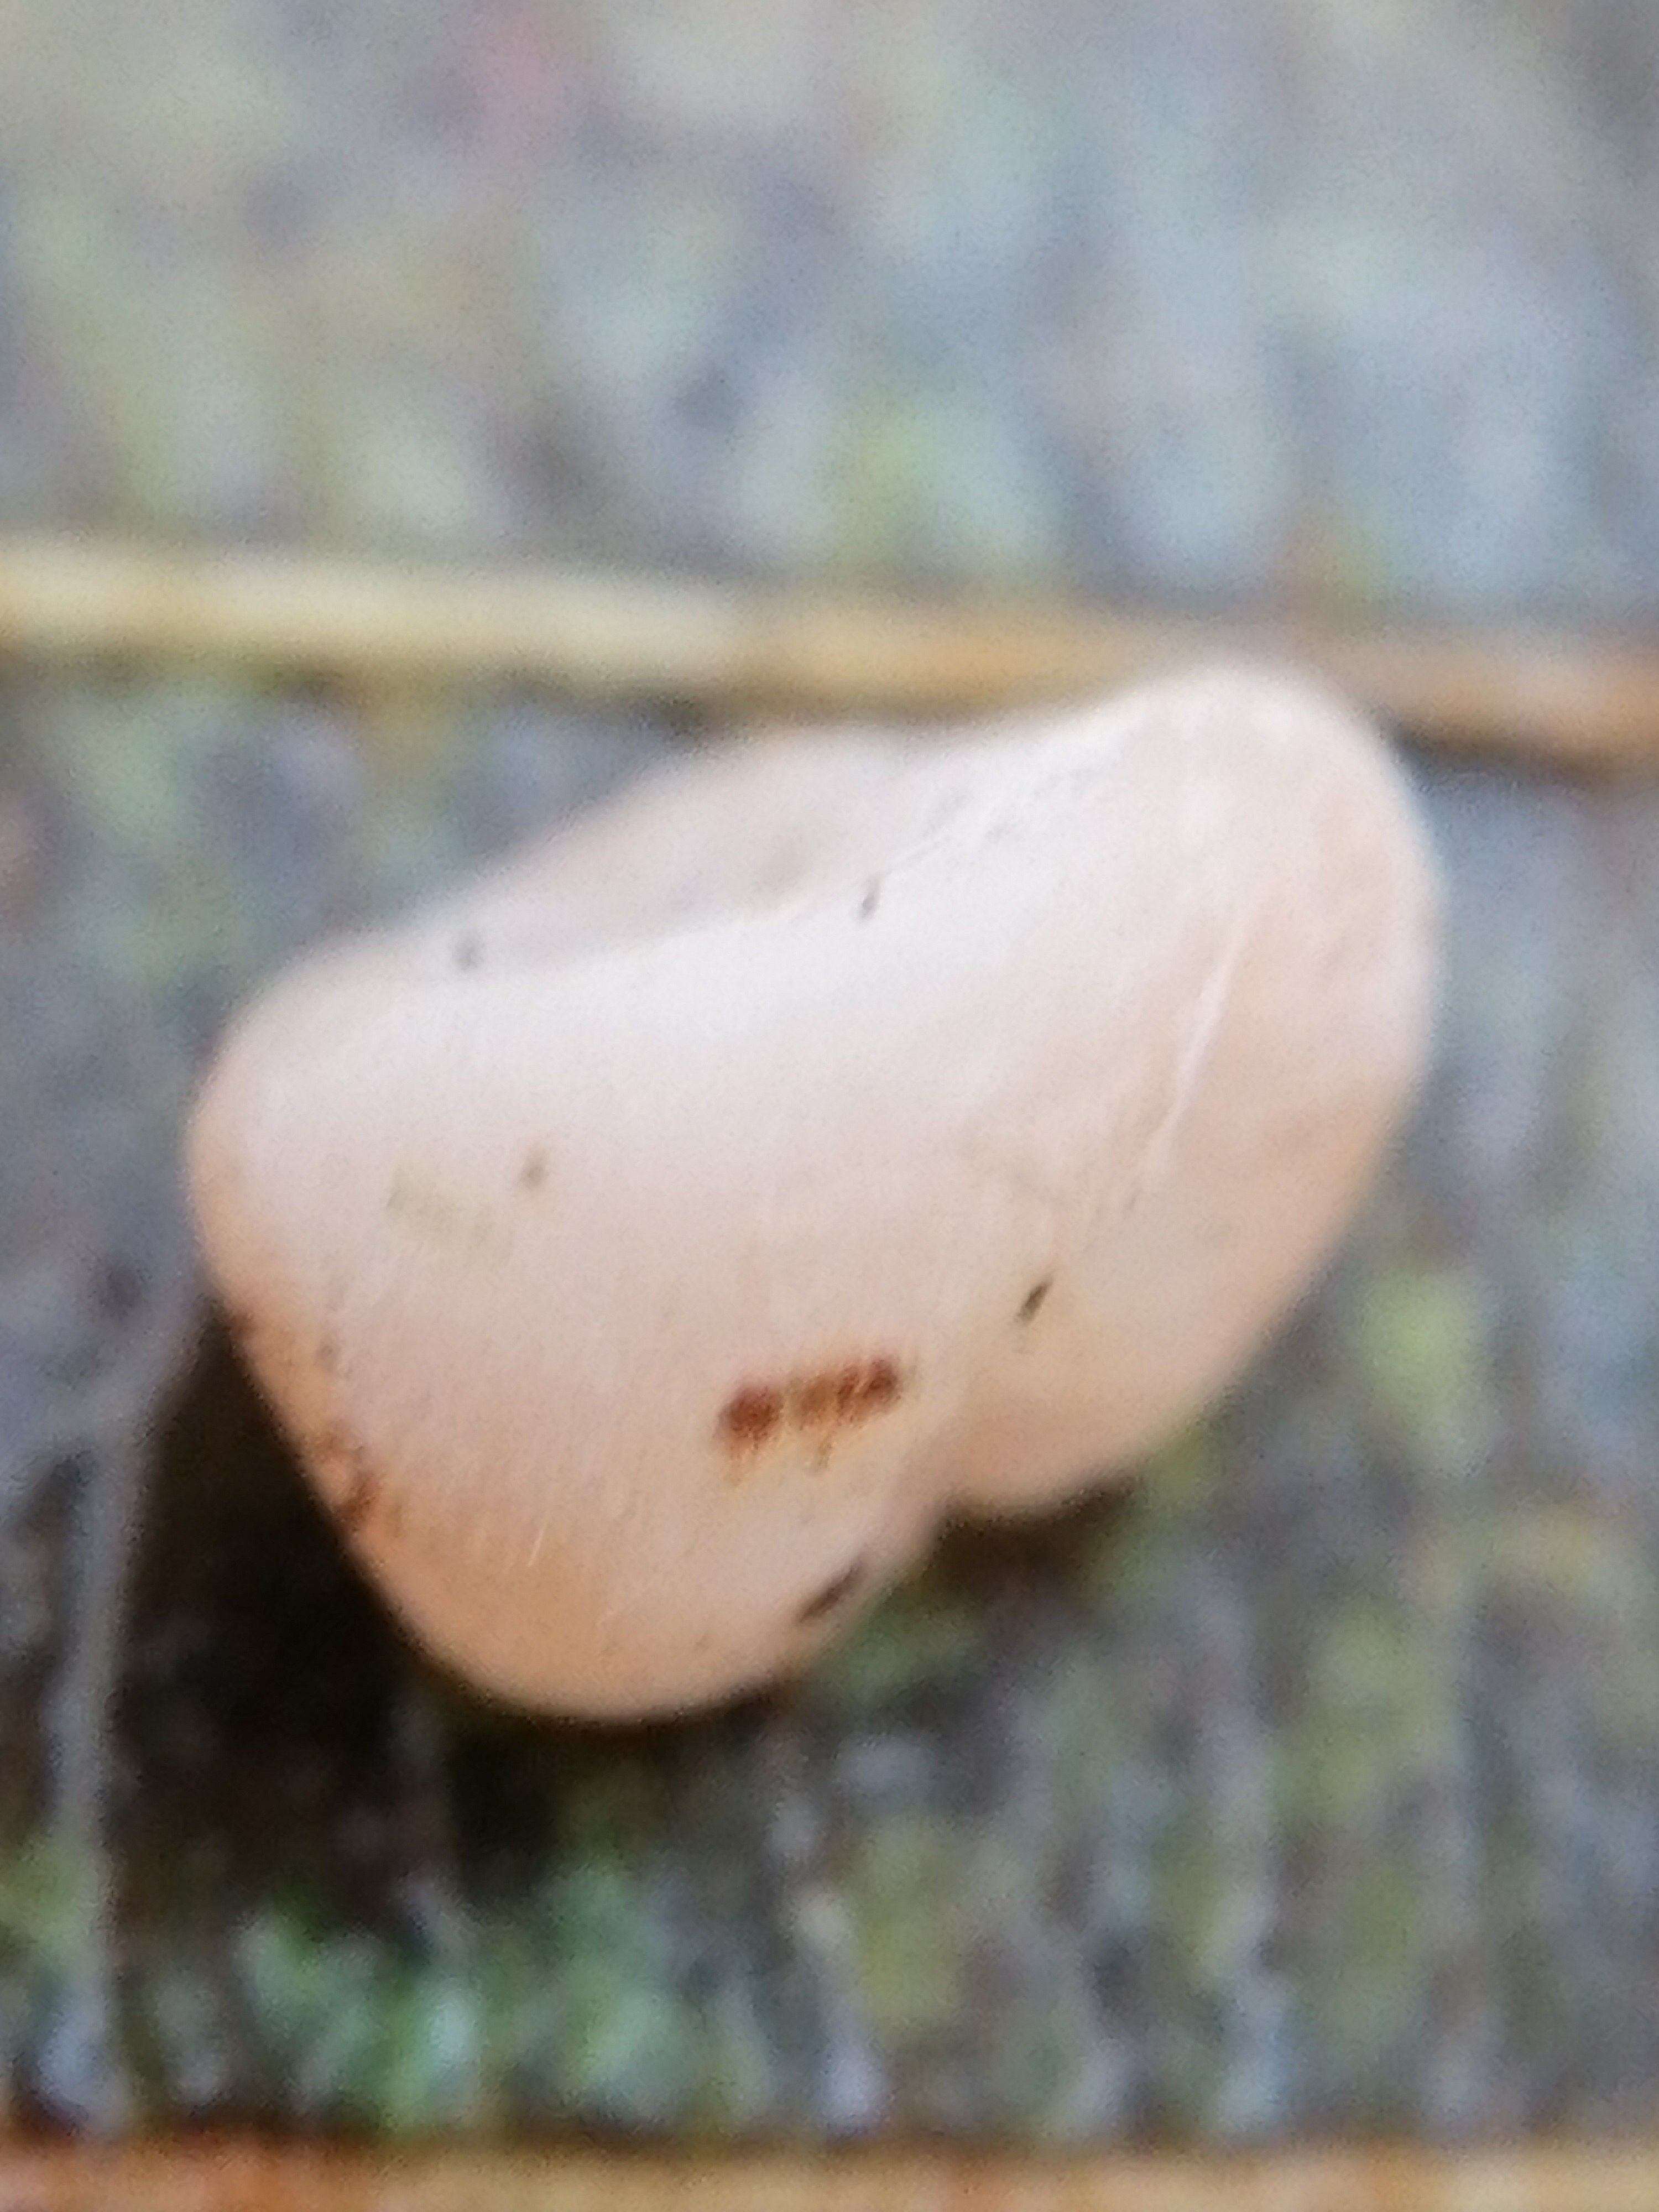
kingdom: Fungi
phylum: Basidiomycota
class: Agaricomycetes
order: Auriculariales
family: Auriculariaceae
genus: Auricularia
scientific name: Auricularia auricula-judae
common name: almindelig judasøre
